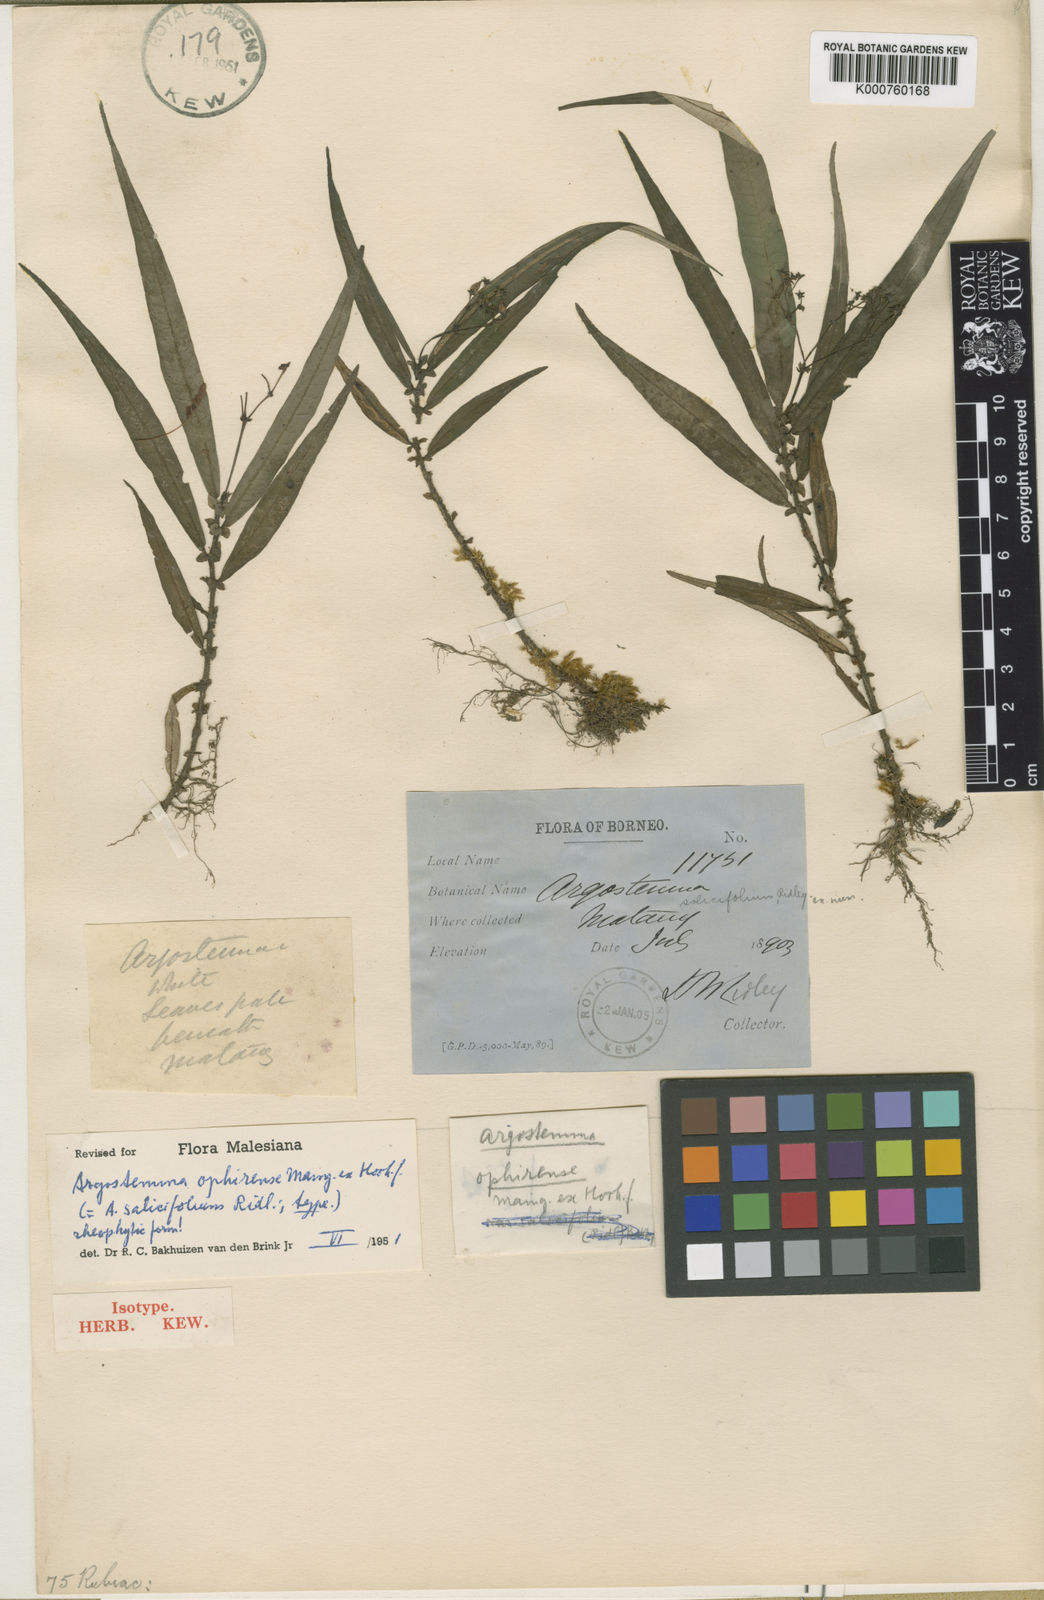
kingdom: Plantae
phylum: Tracheophyta
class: Magnoliopsida
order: Gentianales
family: Rubiaceae
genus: Argostemma
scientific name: Argostemma ophirense
